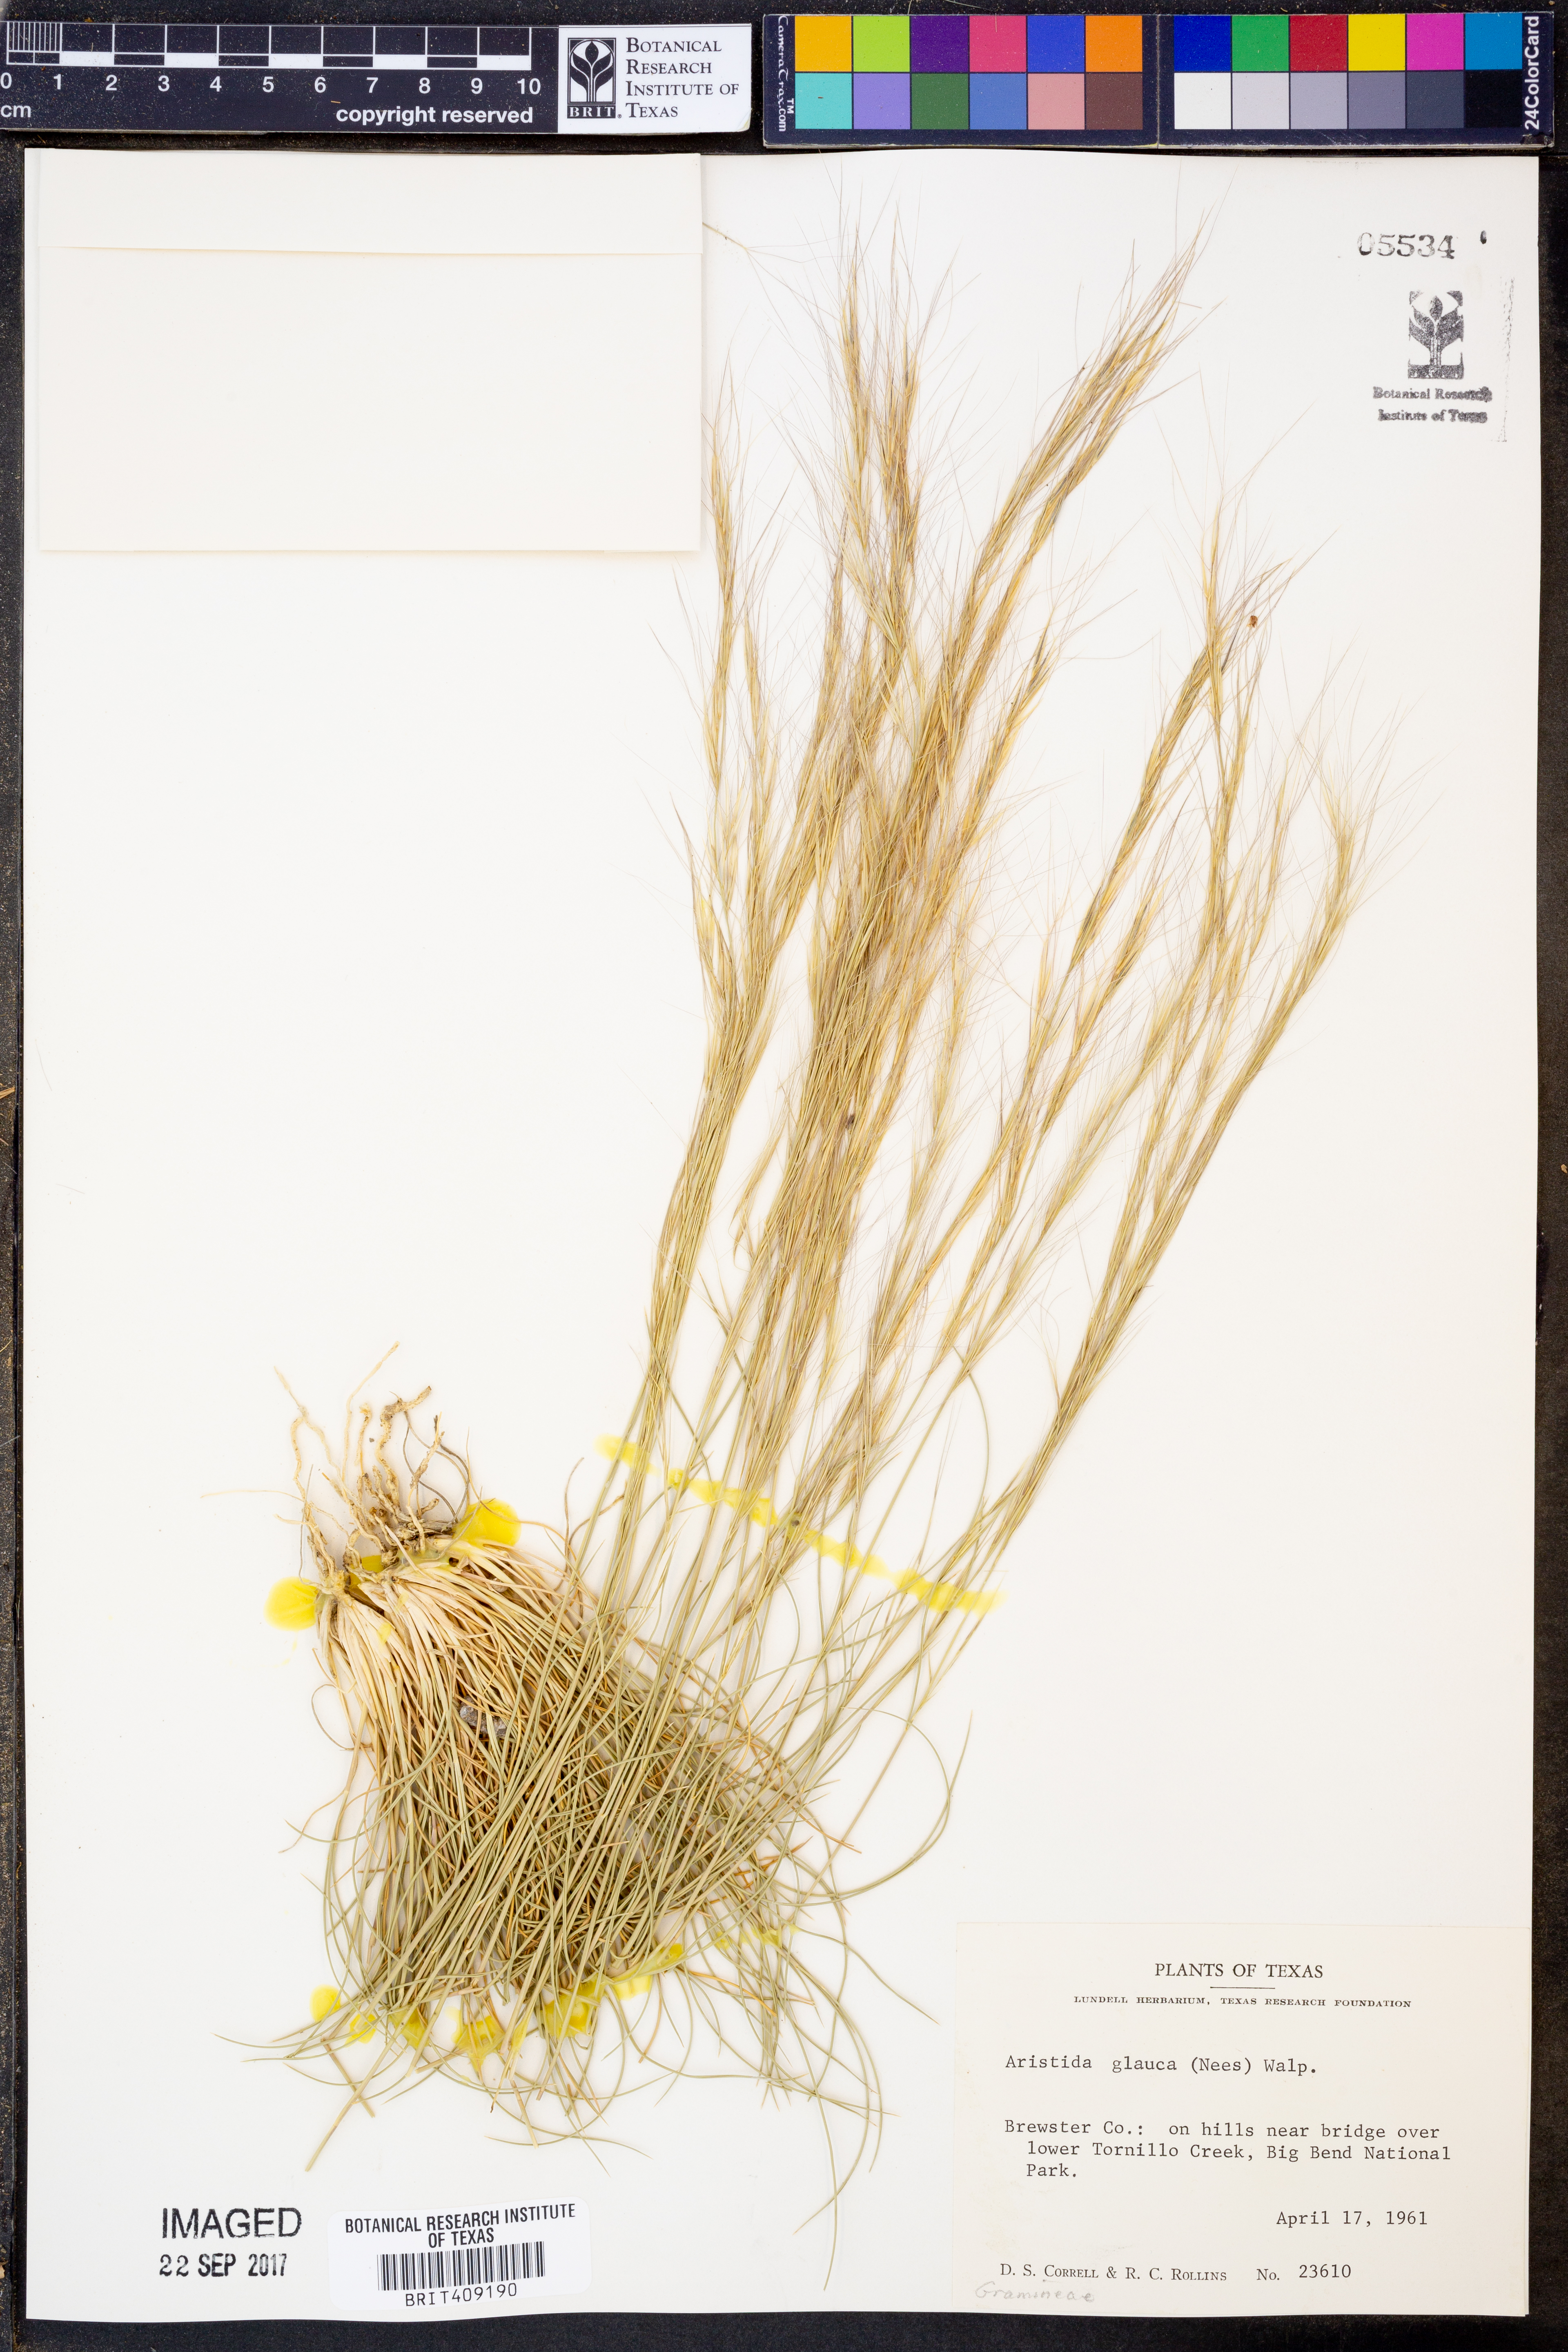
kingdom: Plantae
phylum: Tracheophyta
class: Liliopsida
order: Poales
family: Poaceae
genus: Aristida
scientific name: Aristida glauca
